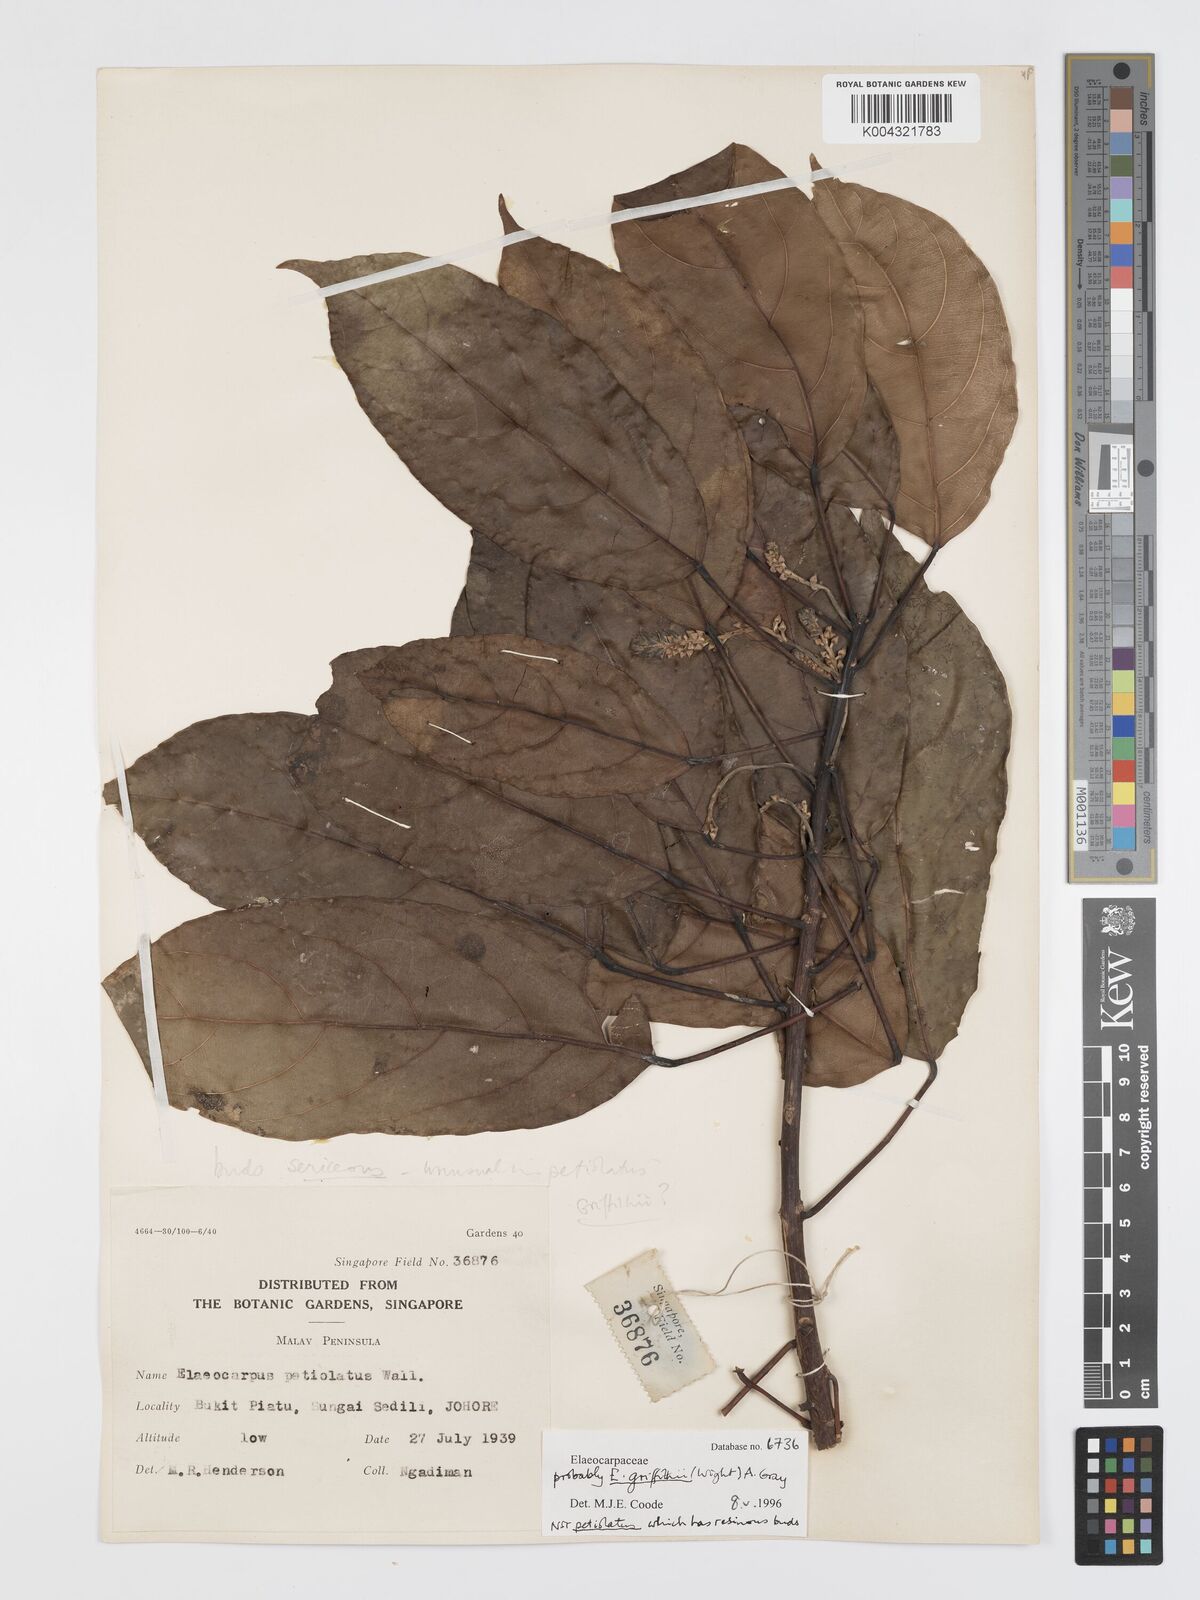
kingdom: Plantae
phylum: Tracheophyta
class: Magnoliopsida
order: Oxalidales
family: Elaeocarpaceae
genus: Elaeocarpus
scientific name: Elaeocarpus griffithii
